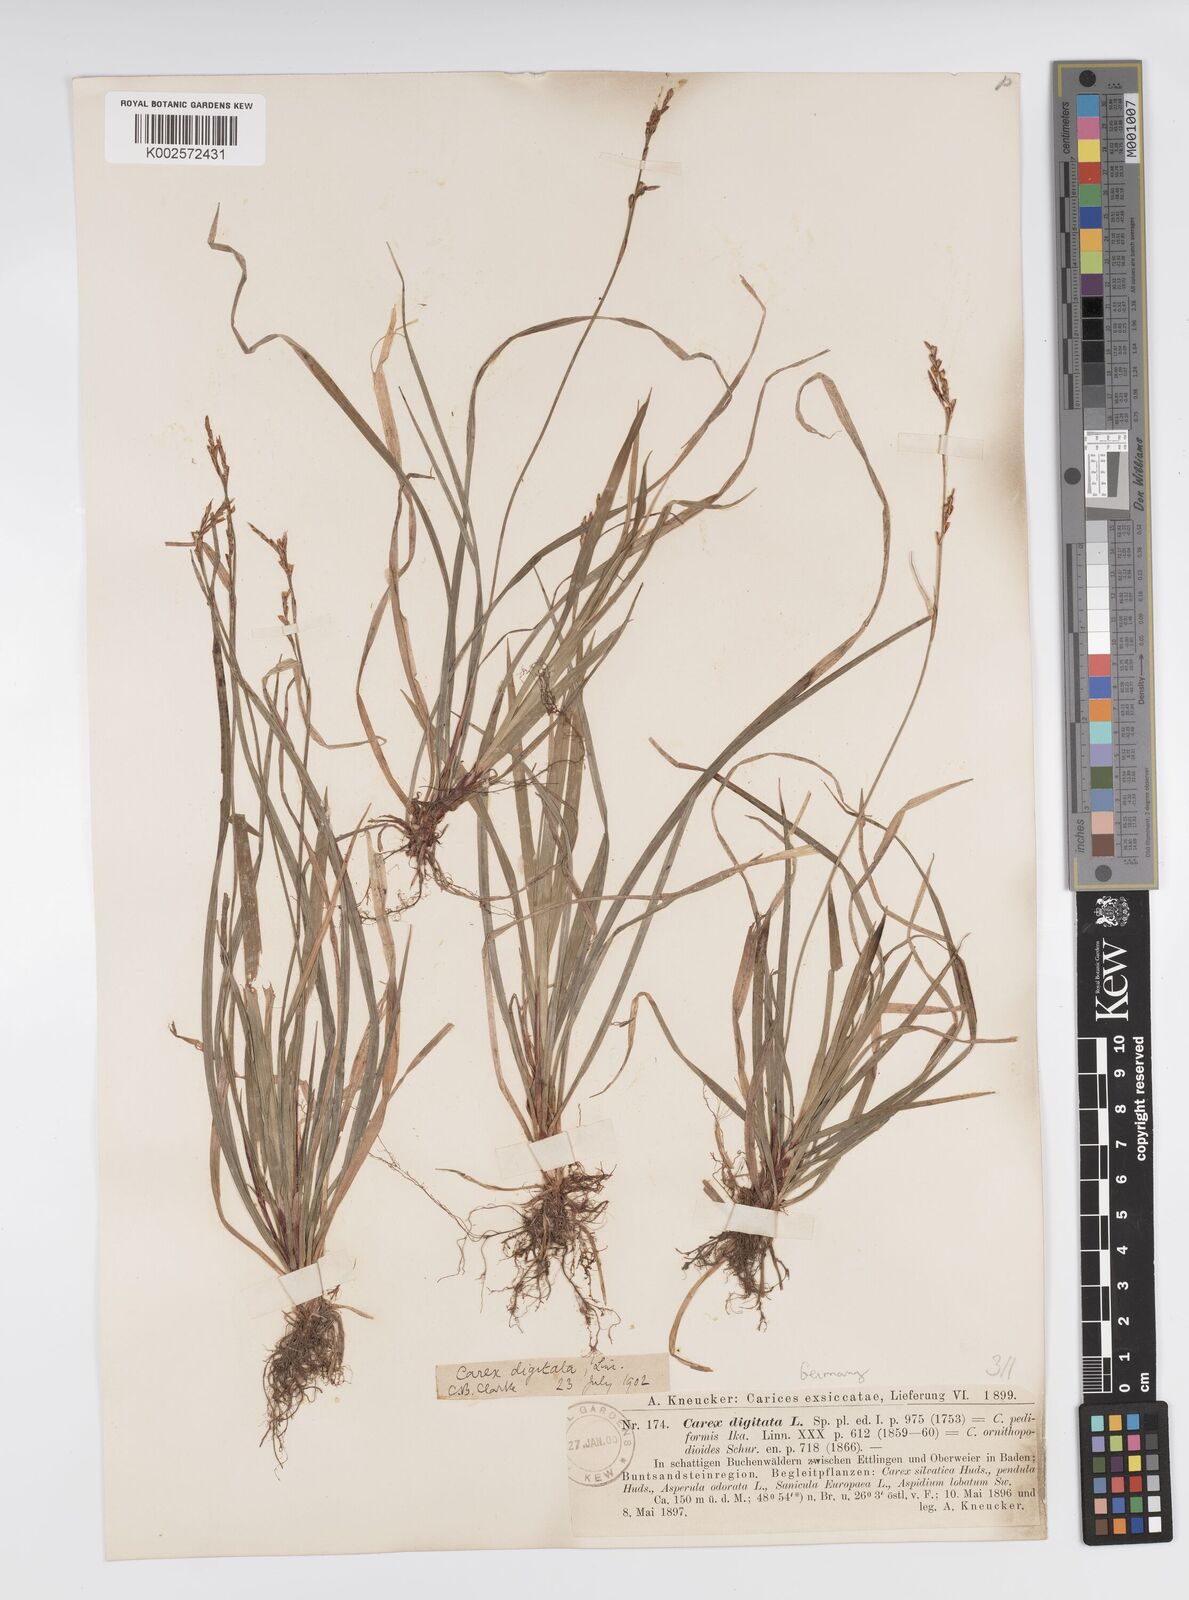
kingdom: Plantae
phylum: Tracheophyta
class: Liliopsida
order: Poales
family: Cyperaceae
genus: Carex
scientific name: Carex digitata
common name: Fingered sedge
